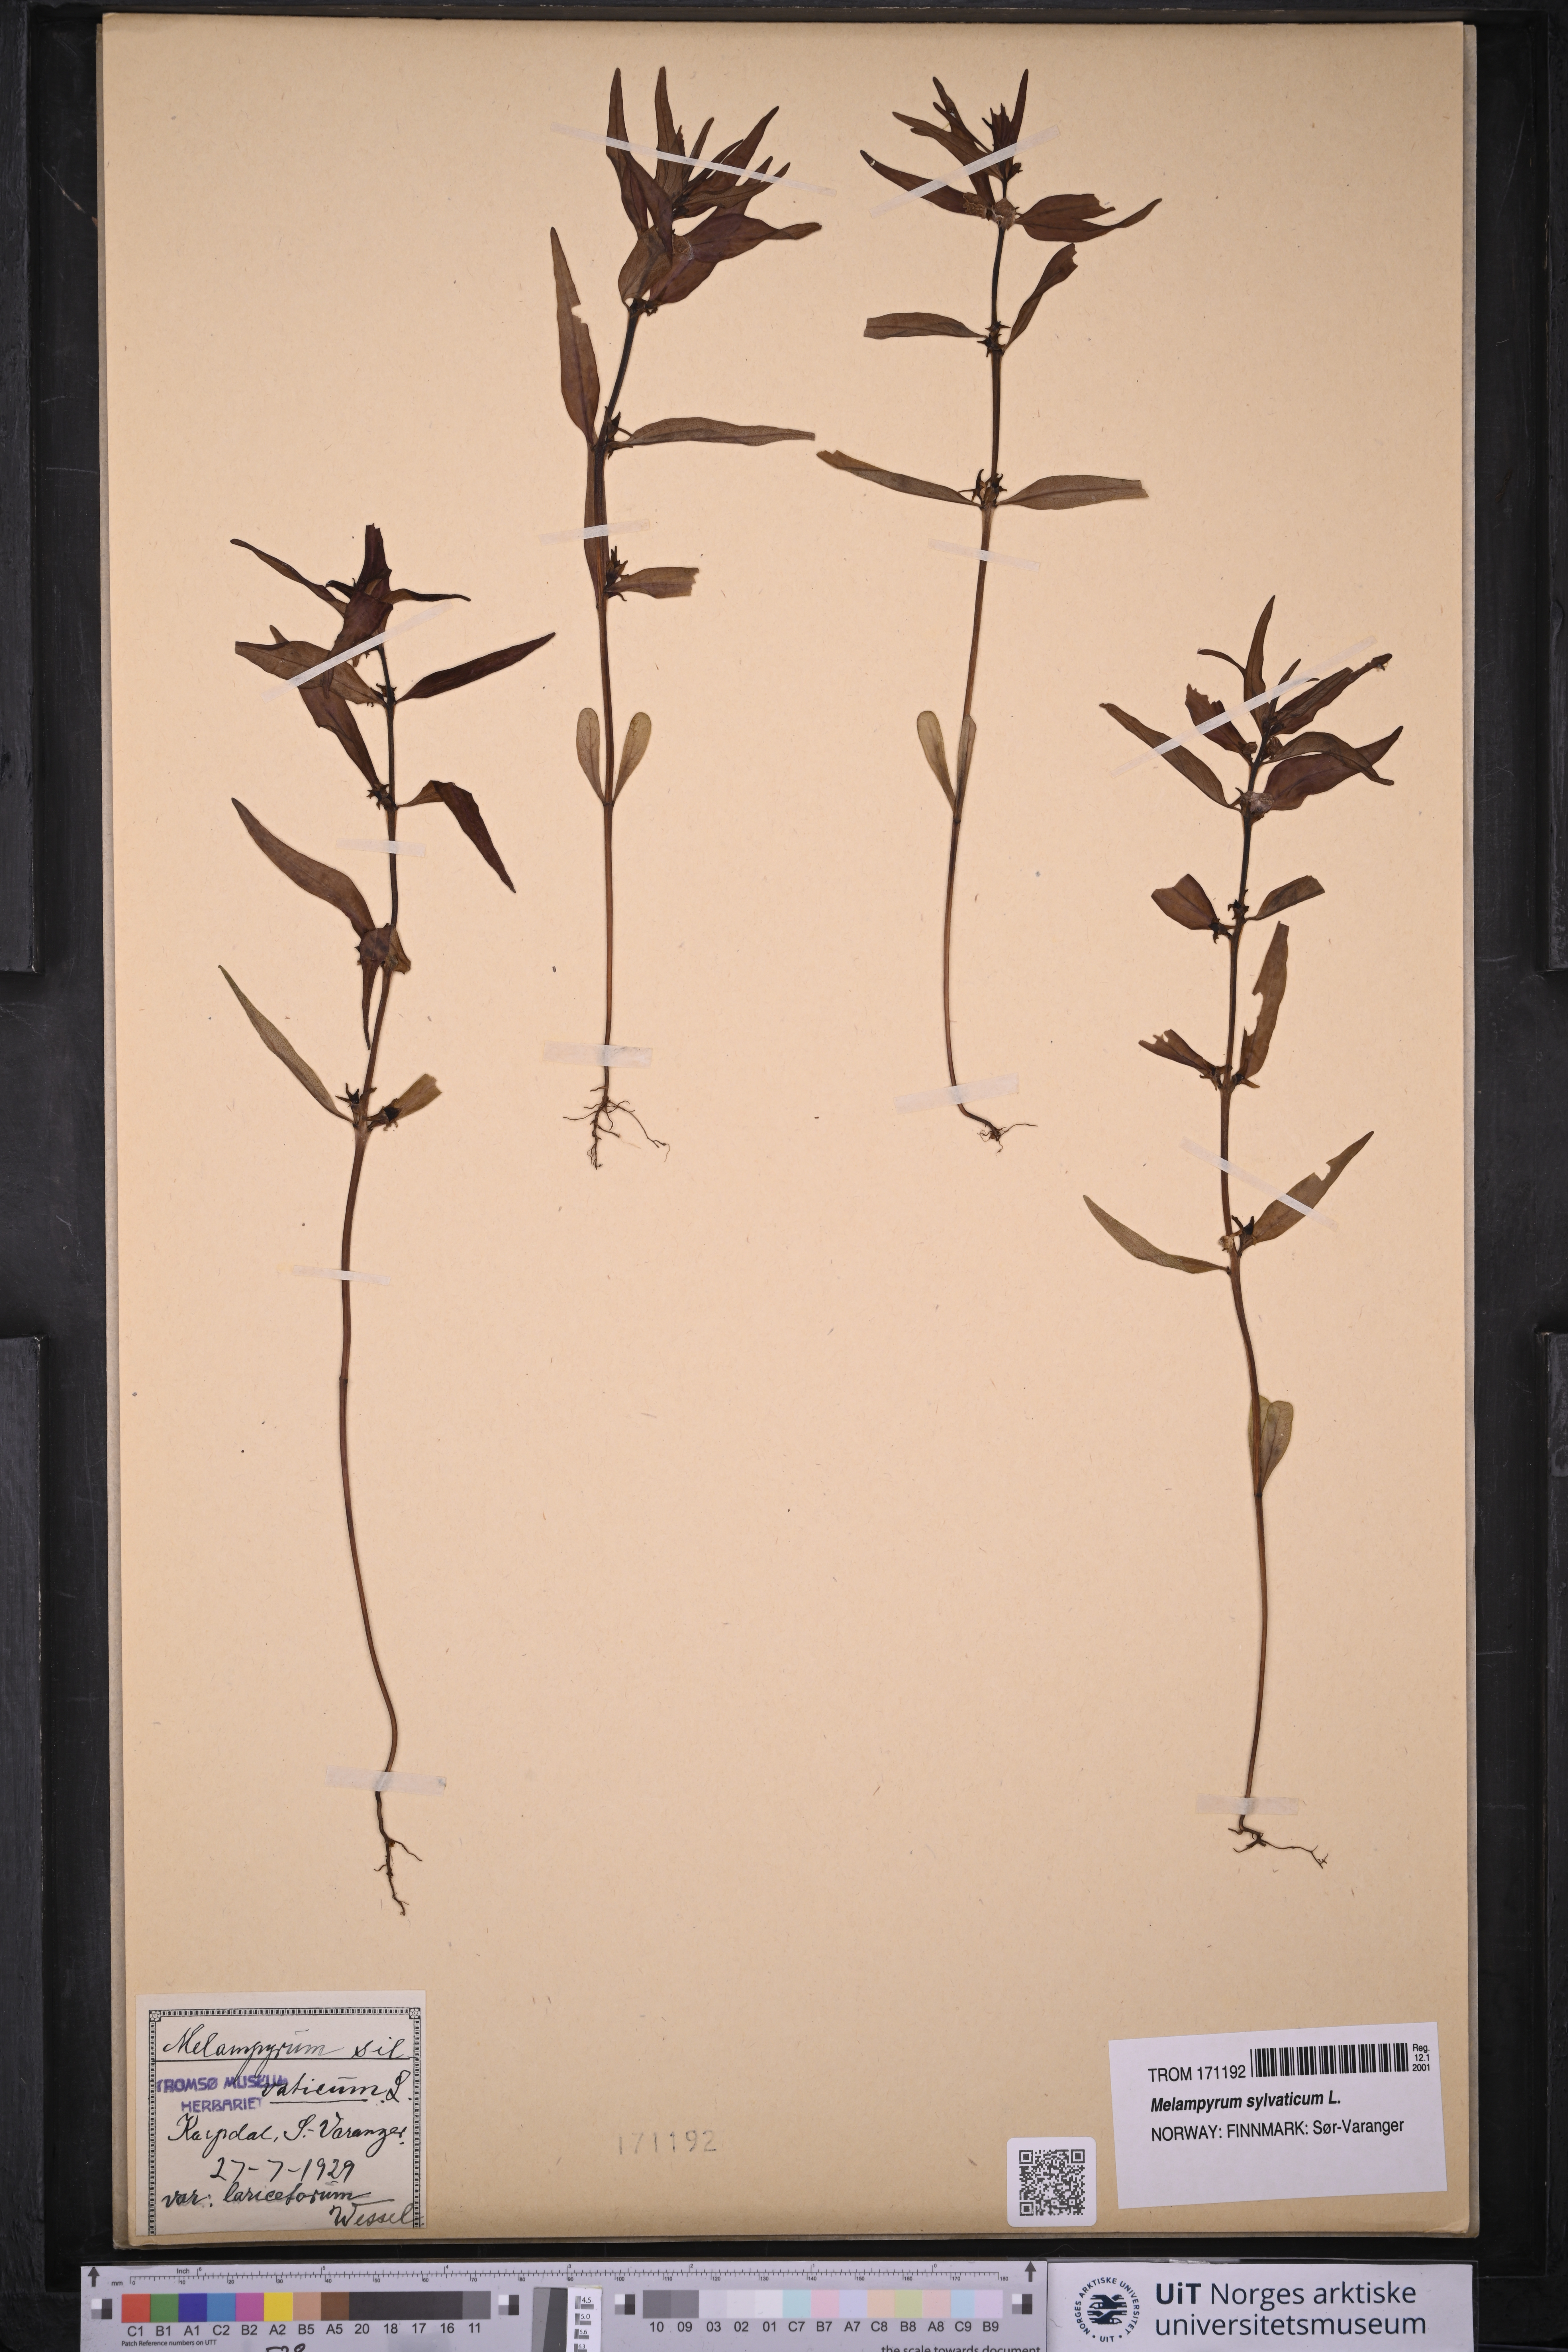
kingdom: Plantae
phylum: Tracheophyta
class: Magnoliopsida
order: Lamiales
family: Orobanchaceae
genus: Melampyrum
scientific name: Melampyrum sylvaticum
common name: Small cow-wheat
